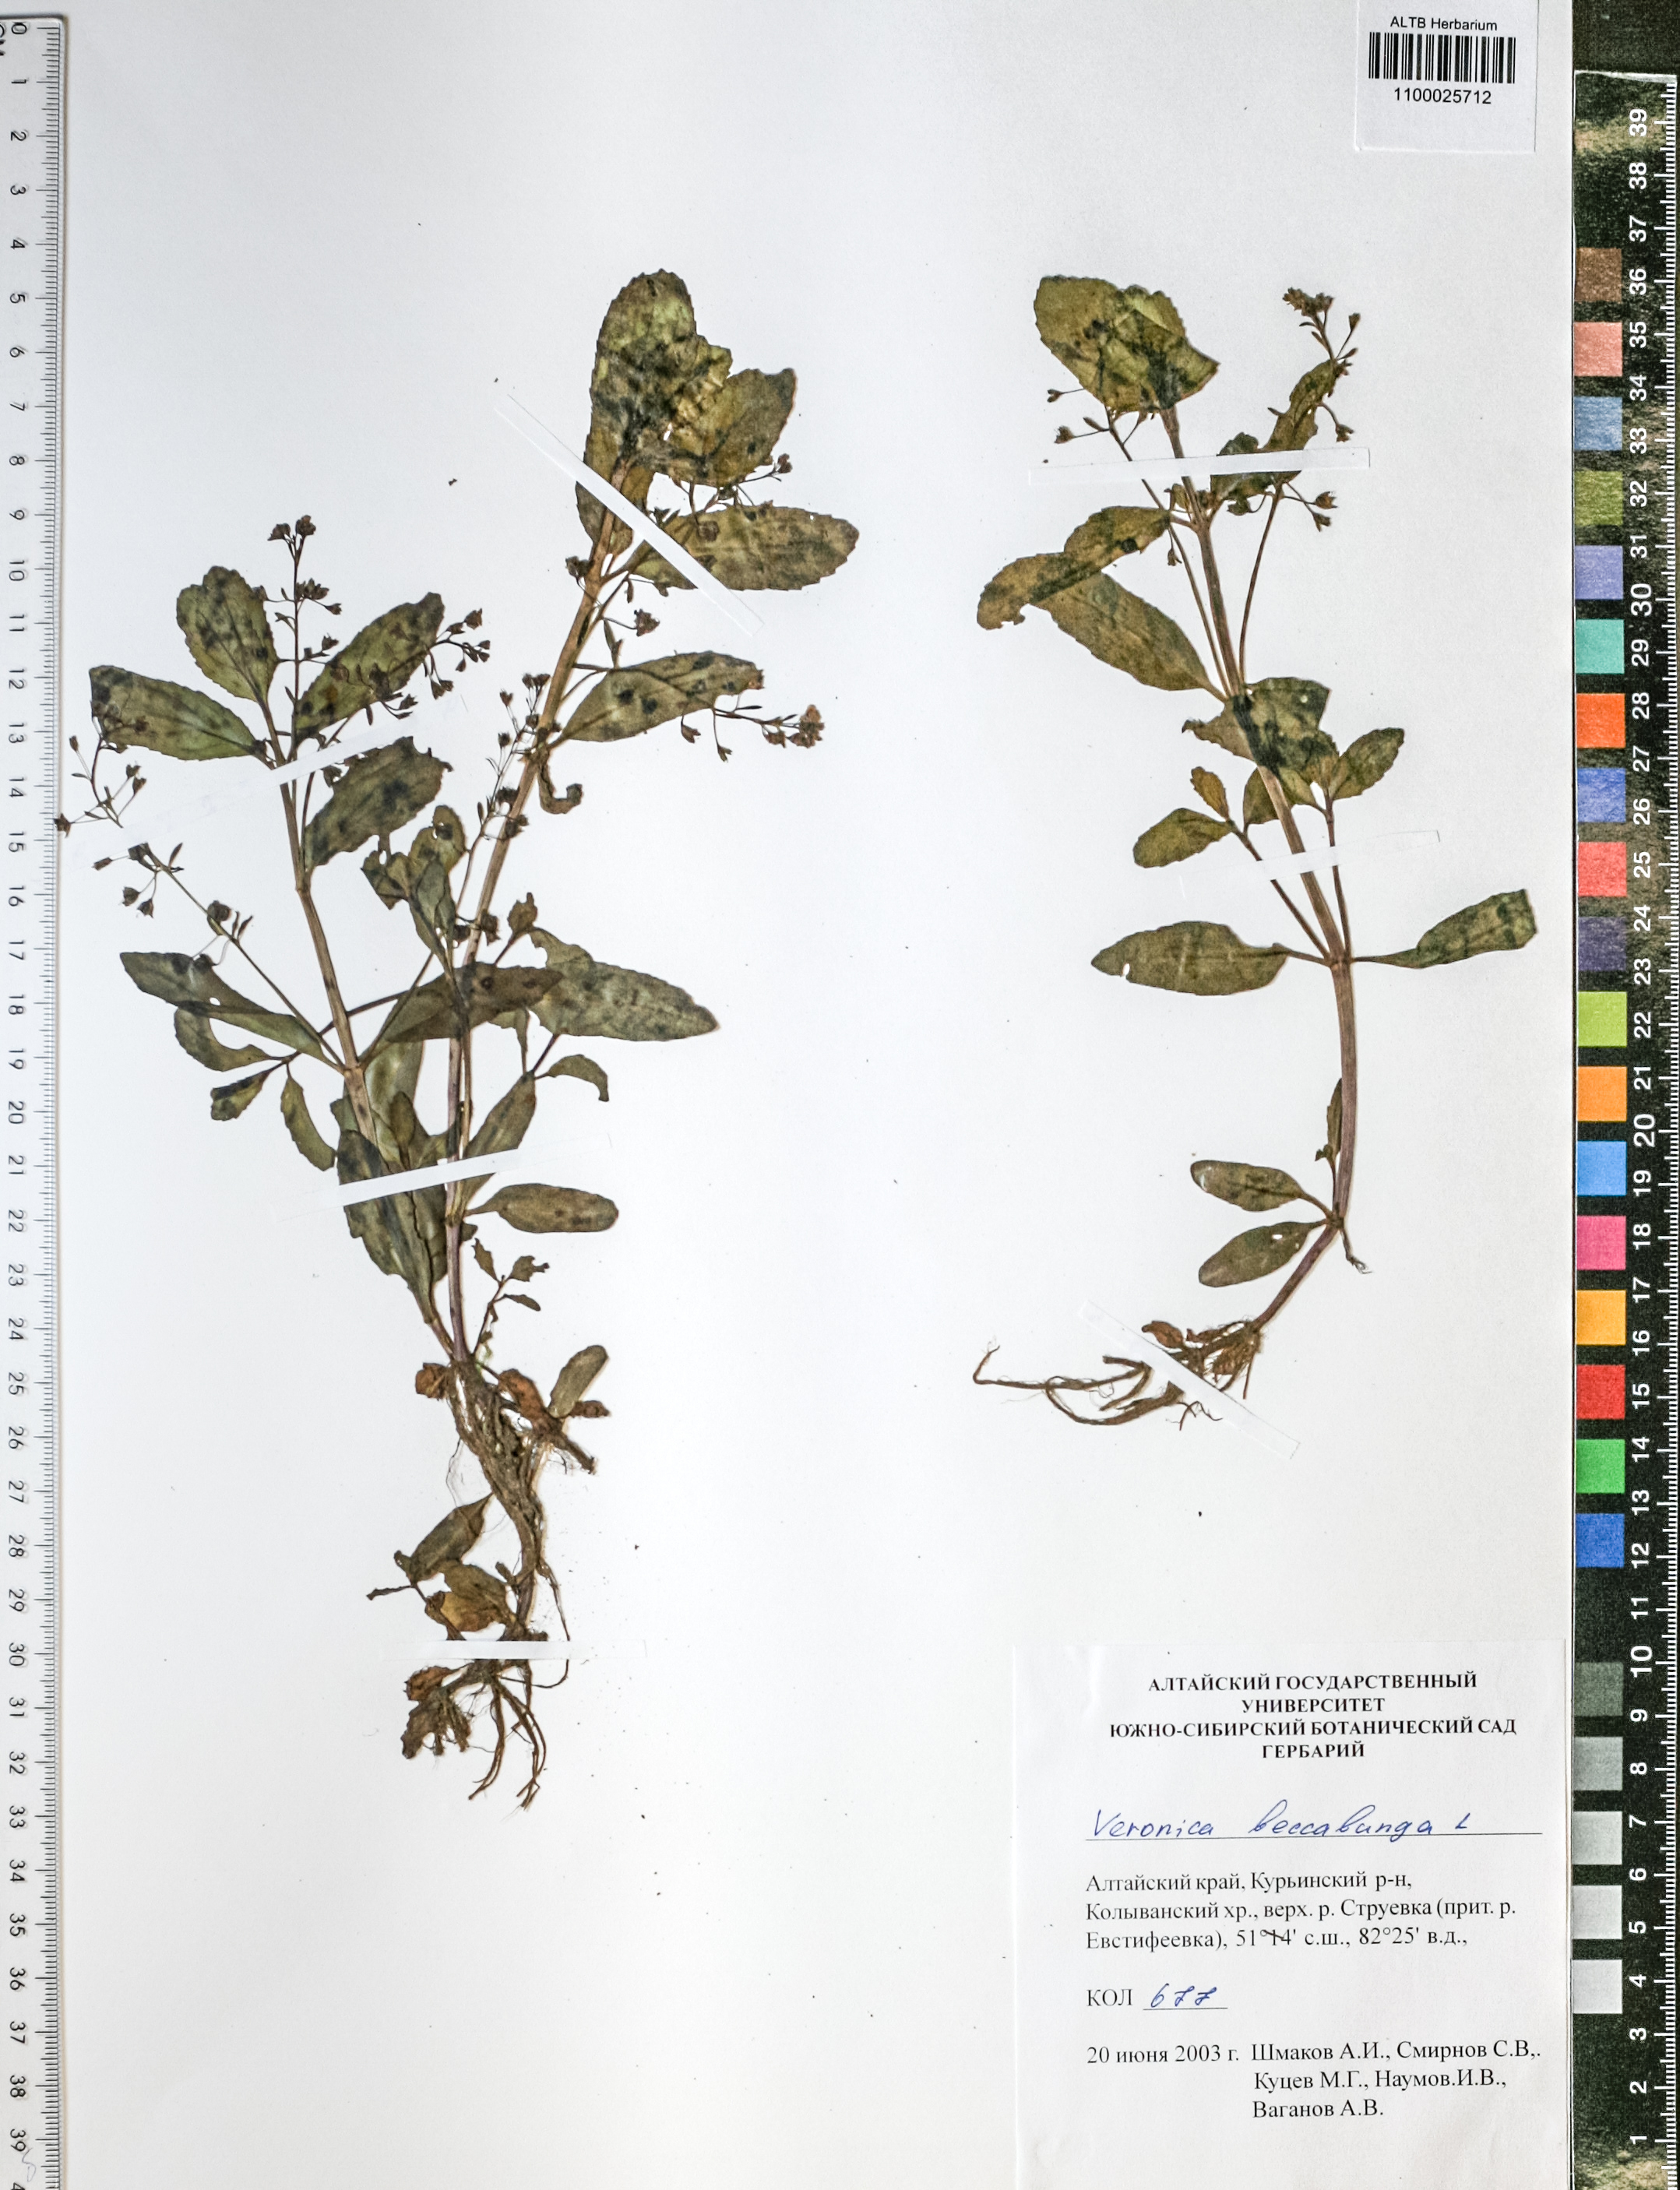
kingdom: Plantae
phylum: Tracheophyta
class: Magnoliopsida
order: Lamiales
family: Plantaginaceae
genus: Veronica
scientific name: Veronica beccabunga
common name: Brooklime
